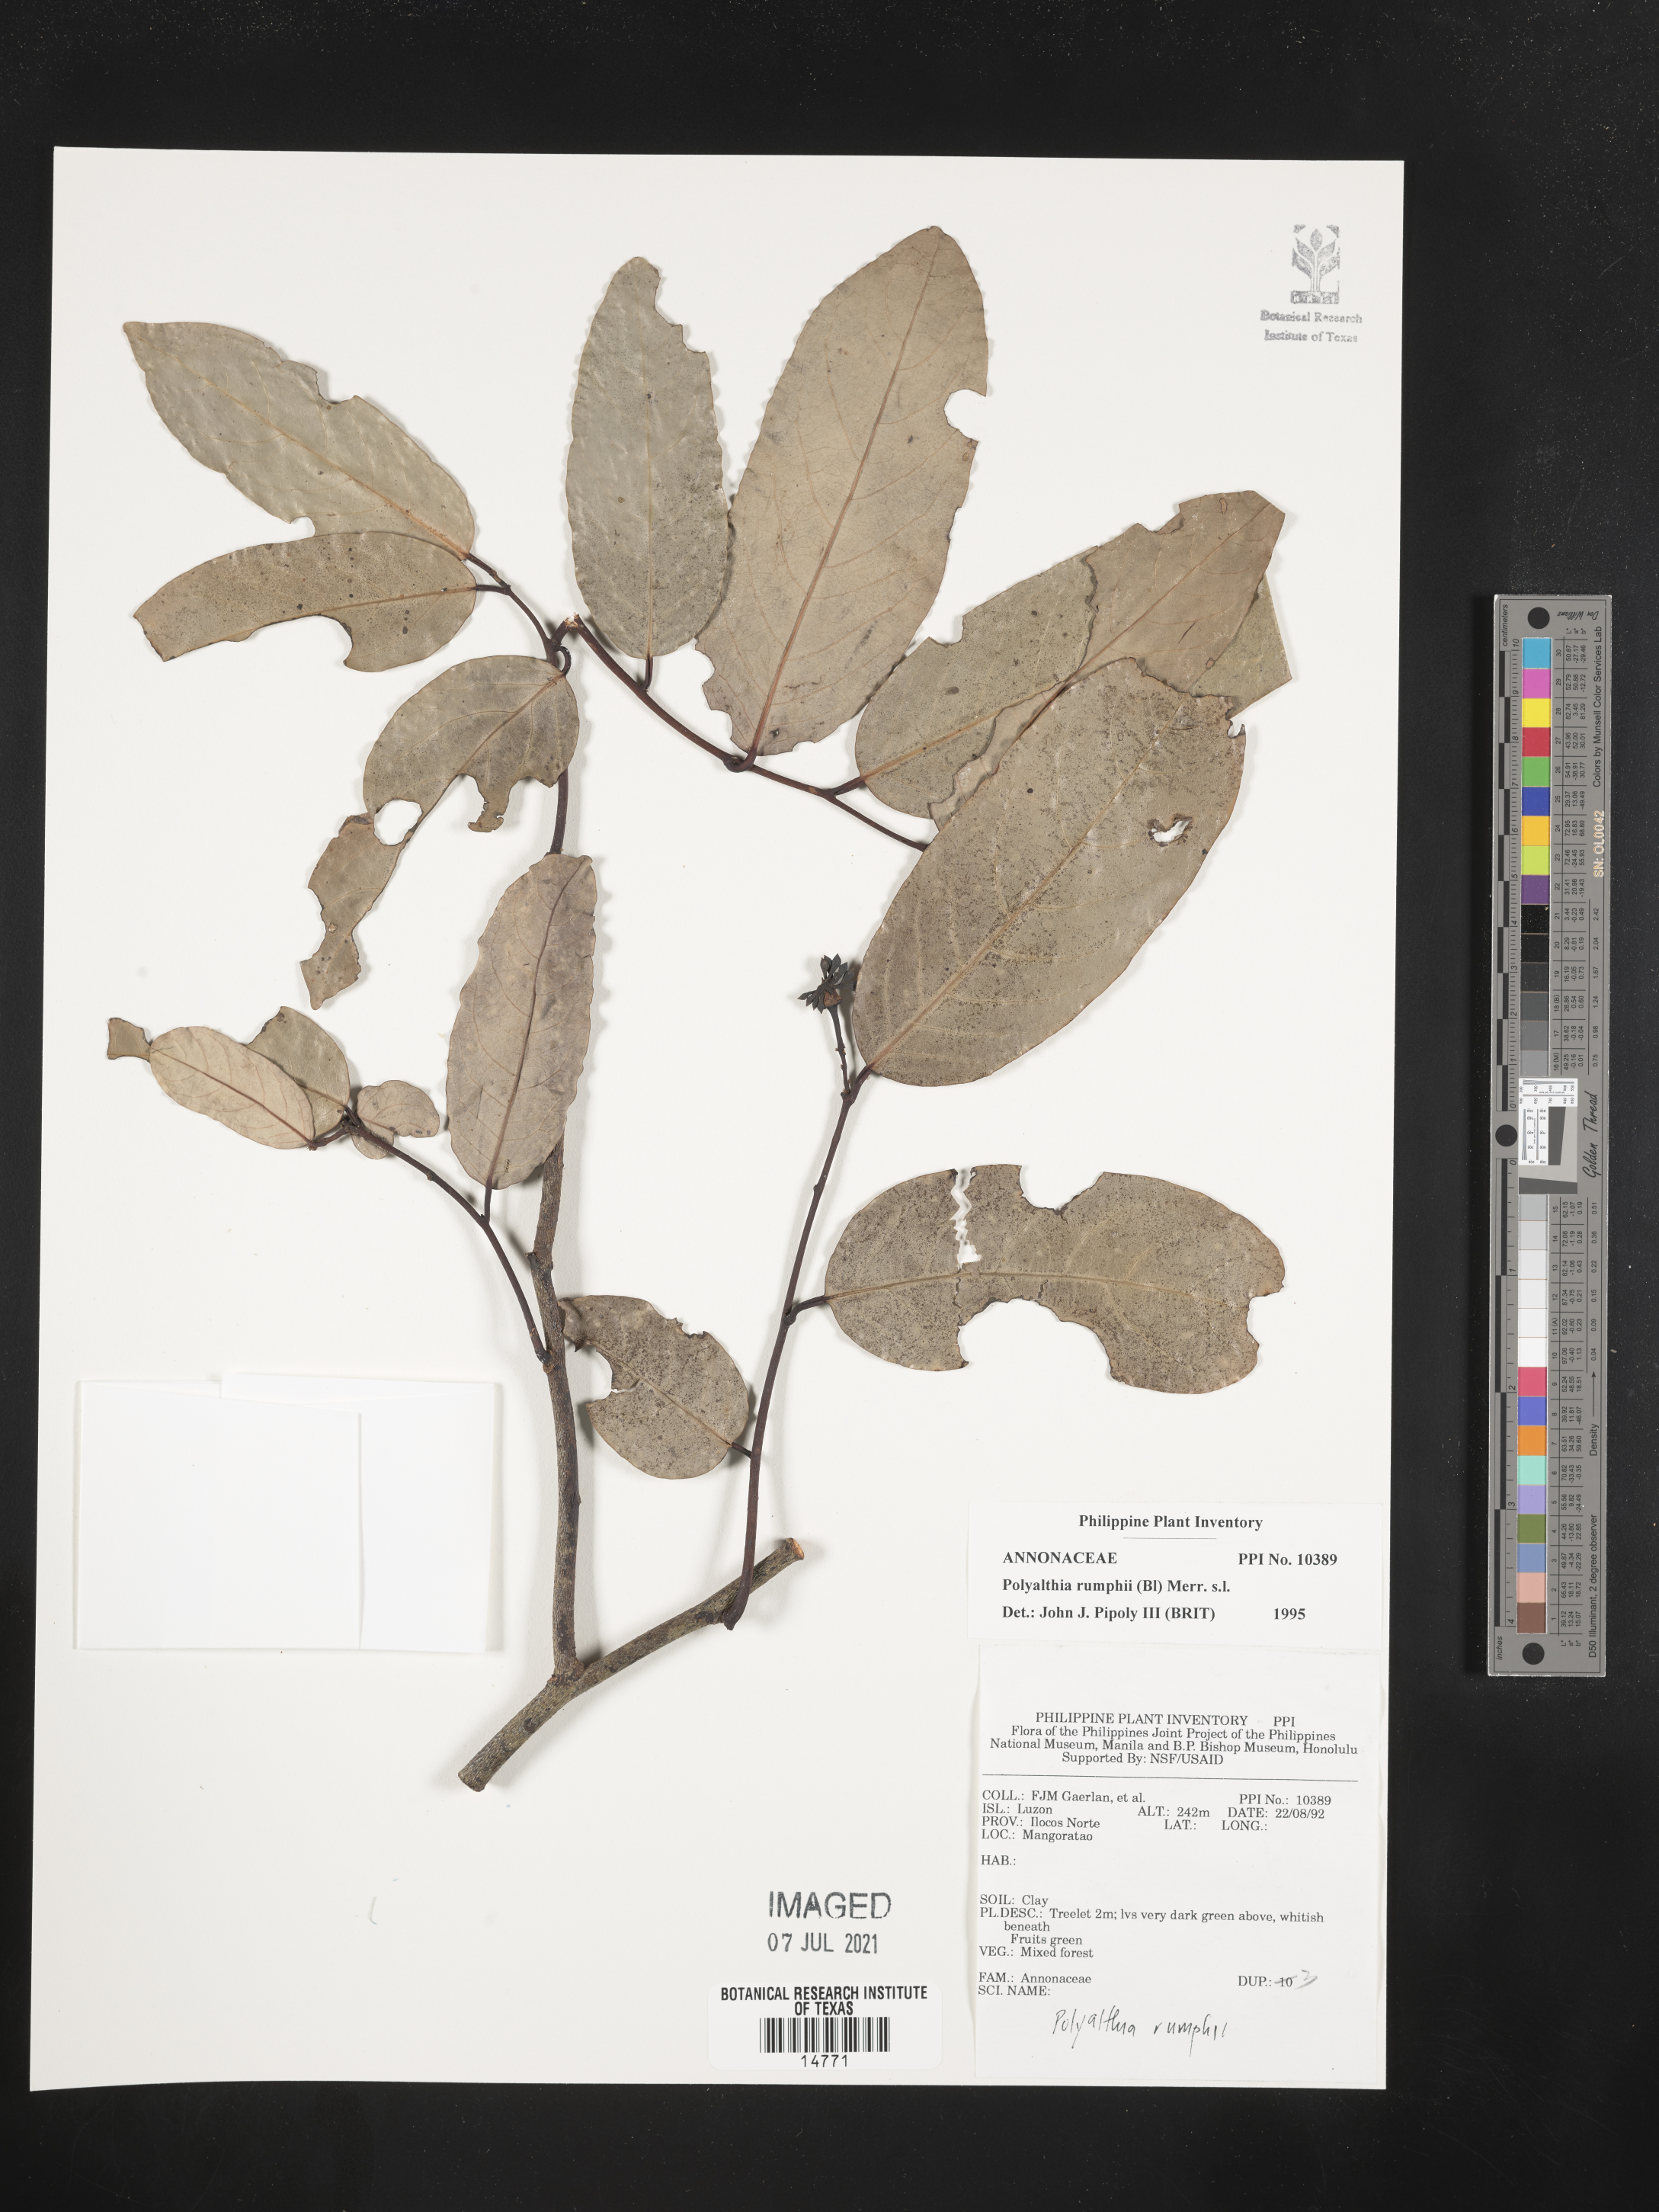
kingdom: Plantae
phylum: Tracheophyta
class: Magnoliopsida
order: Magnoliales
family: Annonaceae
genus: Hubera
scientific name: Hubera rumphii
